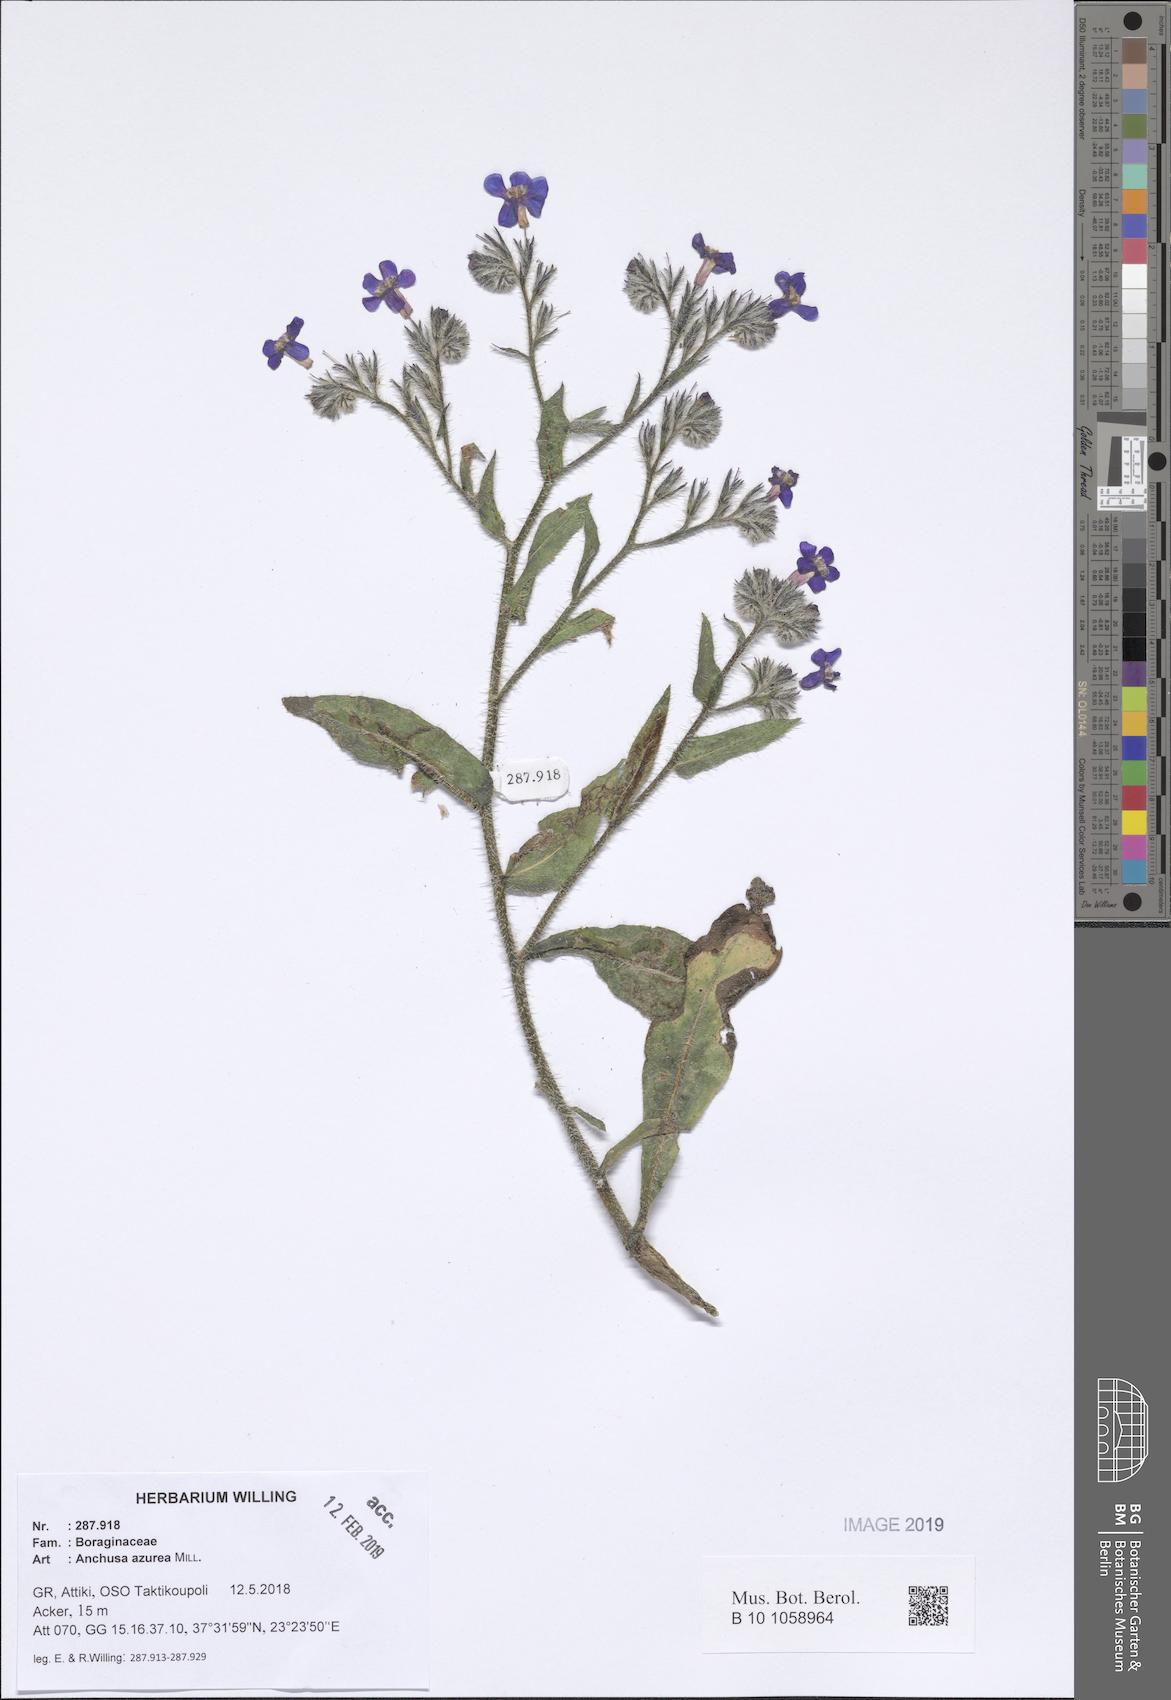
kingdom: Plantae
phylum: Tracheophyta
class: Magnoliopsida
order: Boraginales
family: Boraginaceae
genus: Anchusa
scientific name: Anchusa azurea
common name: Garden anchusa
